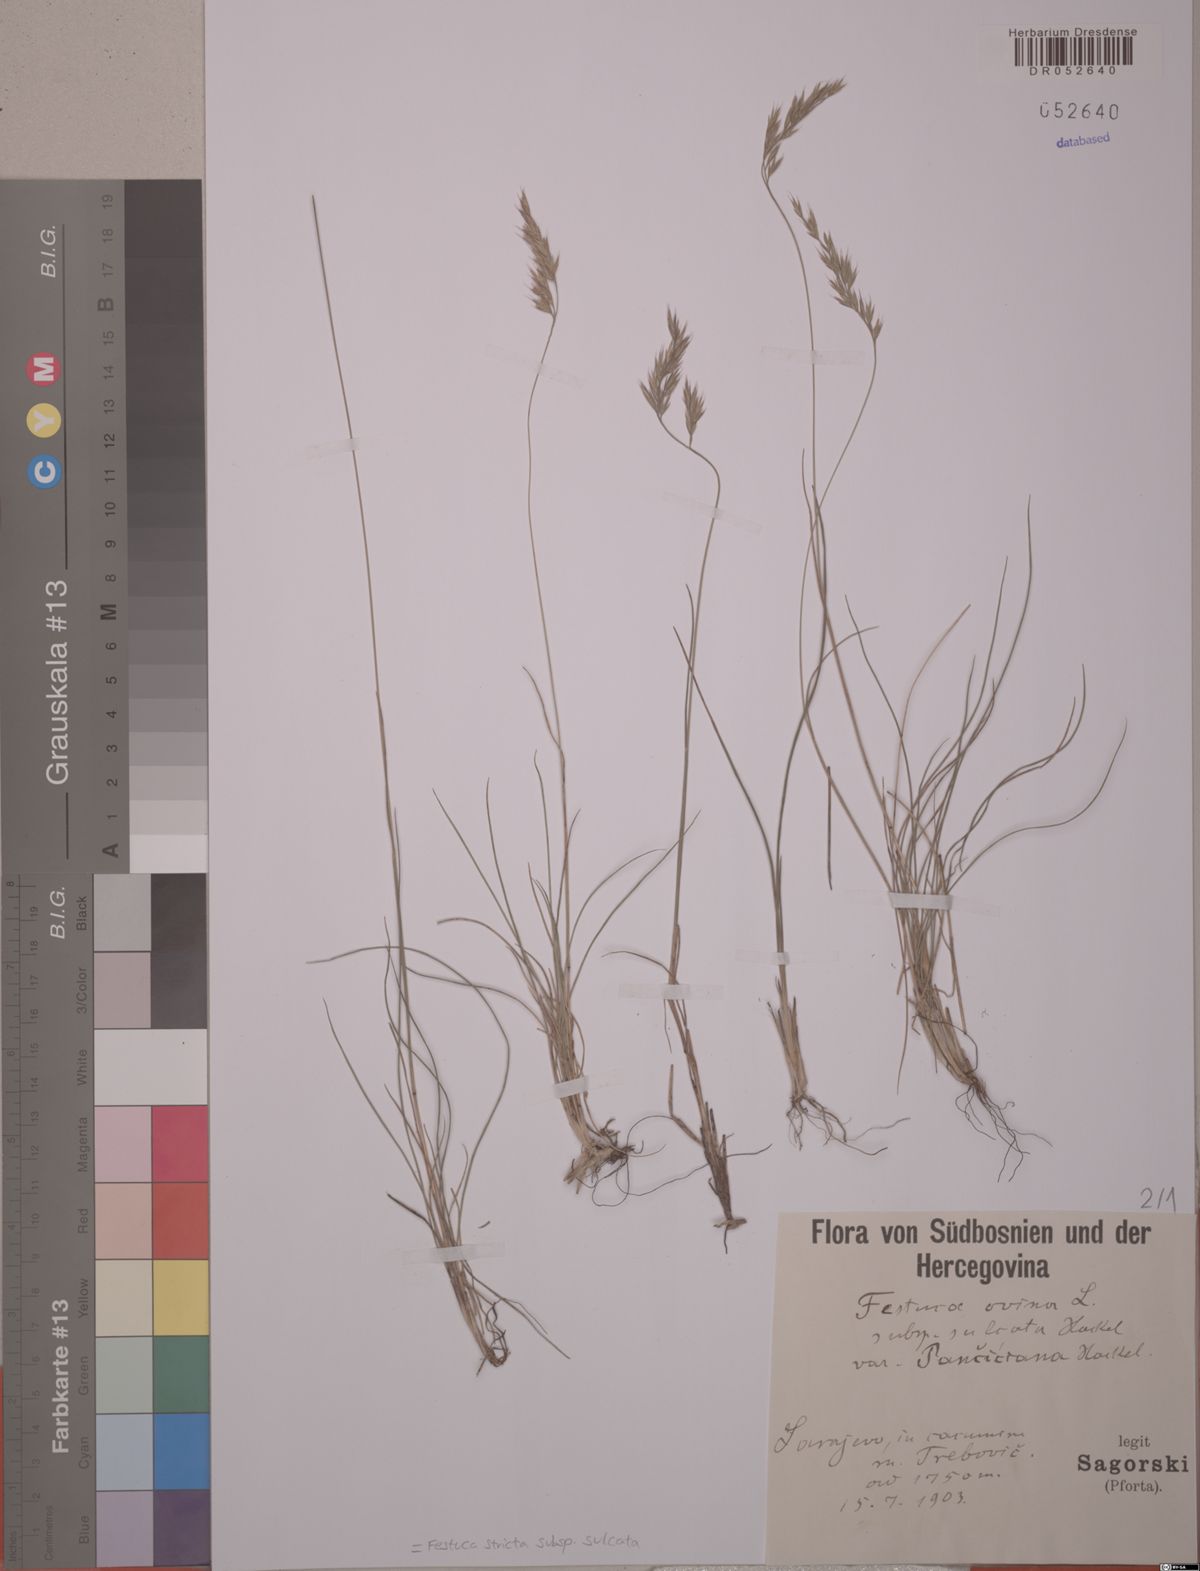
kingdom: Plantae
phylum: Tracheophyta
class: Liliopsida
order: Poales
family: Poaceae
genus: Festuca
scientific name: Festuca rupicola
